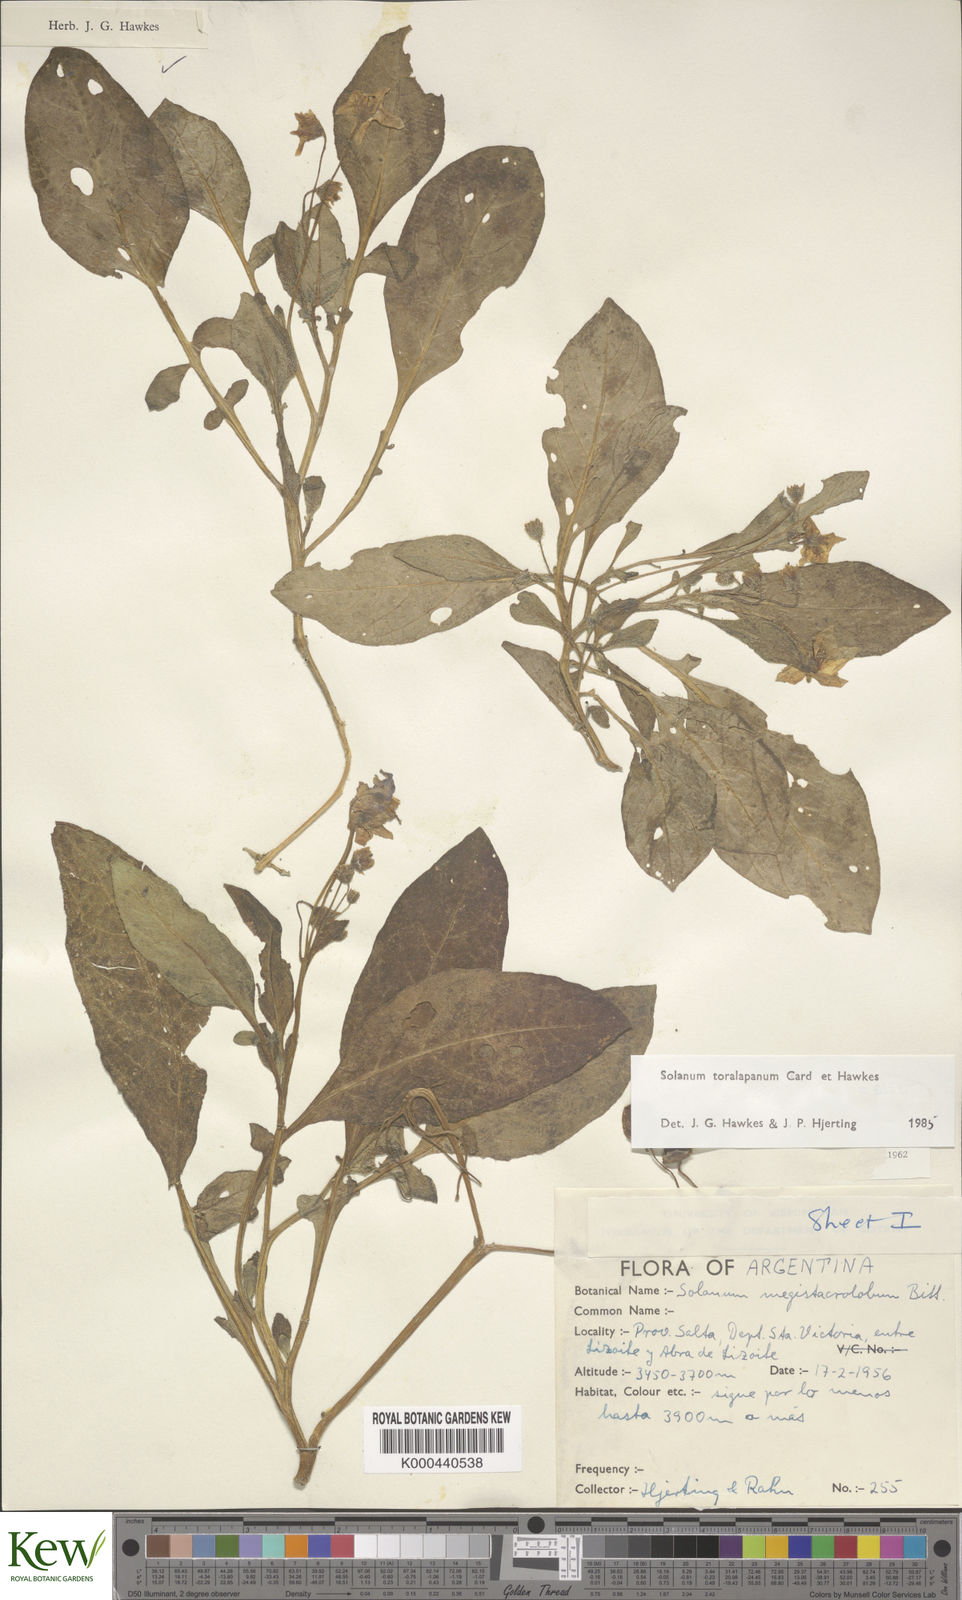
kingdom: Plantae
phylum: Tracheophyta
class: Magnoliopsida
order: Solanales
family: Solanaceae
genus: Solanum
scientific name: Solanum
